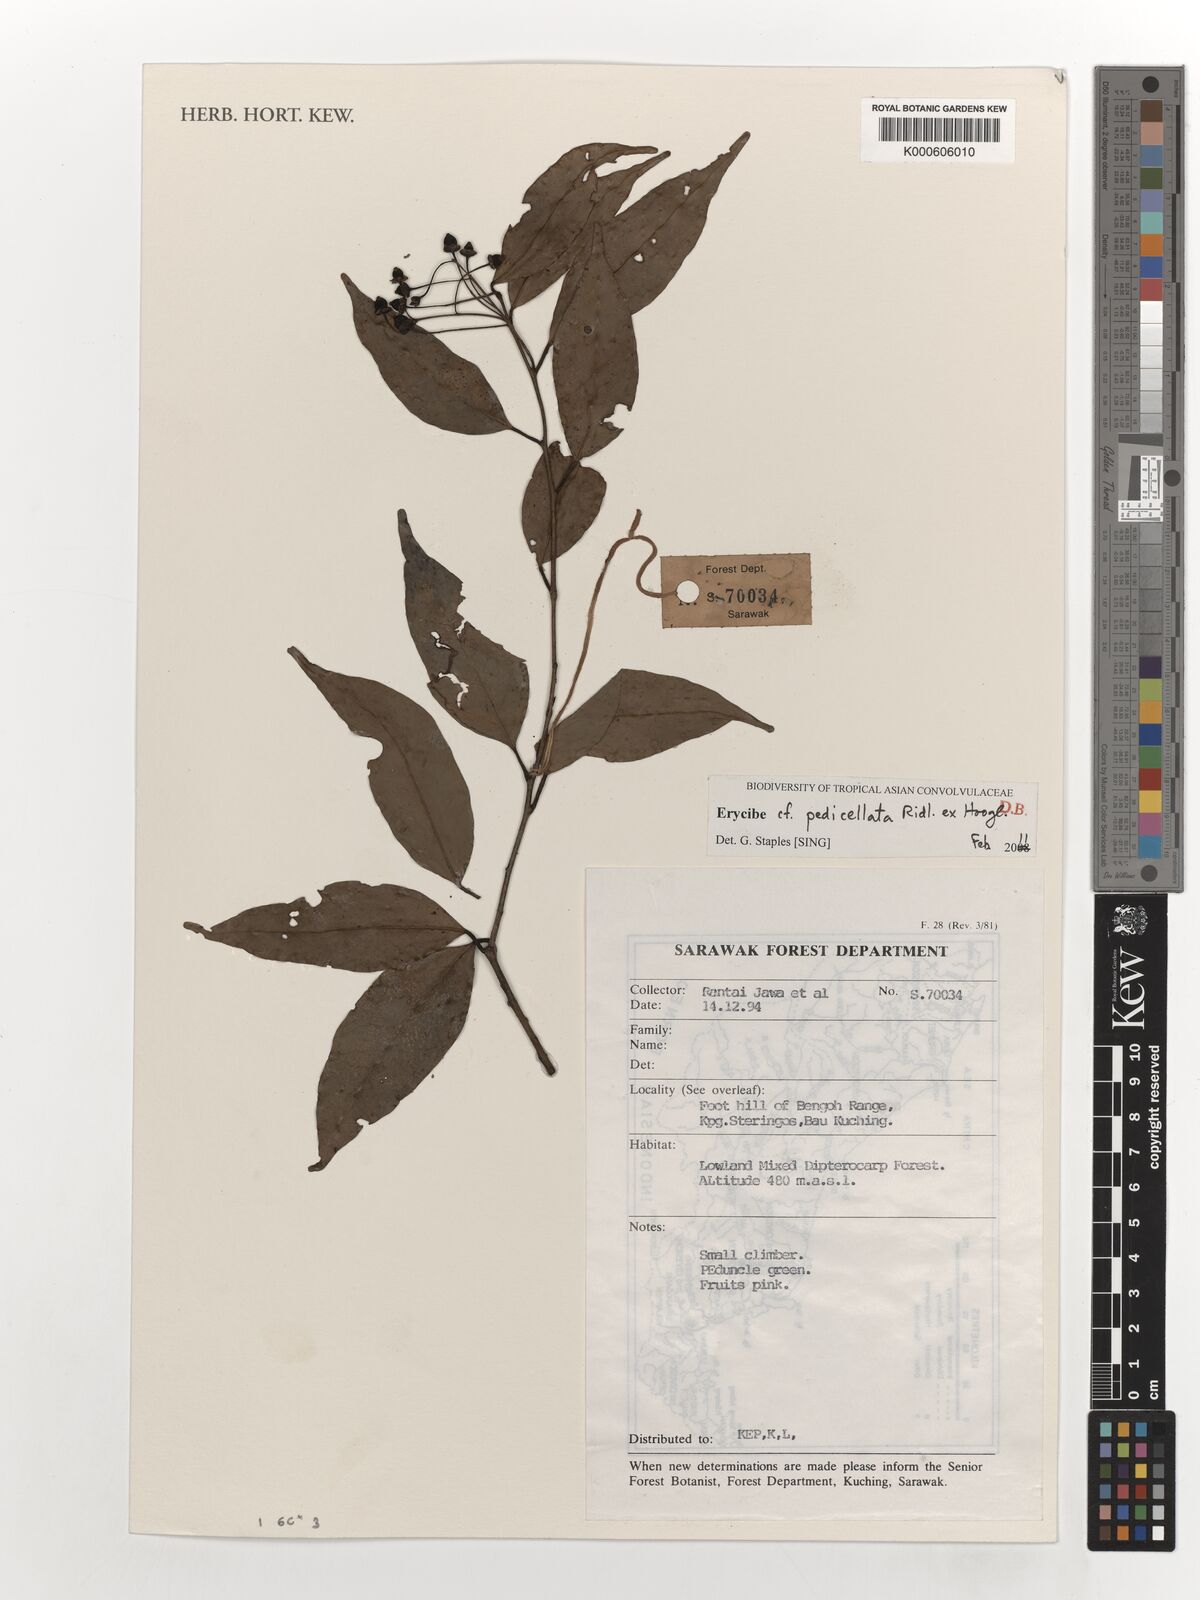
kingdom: Plantae
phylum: Tracheophyta
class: Magnoliopsida
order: Solanales
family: Convolvulaceae
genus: Erycibe
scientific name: Erycibe pedicellata
